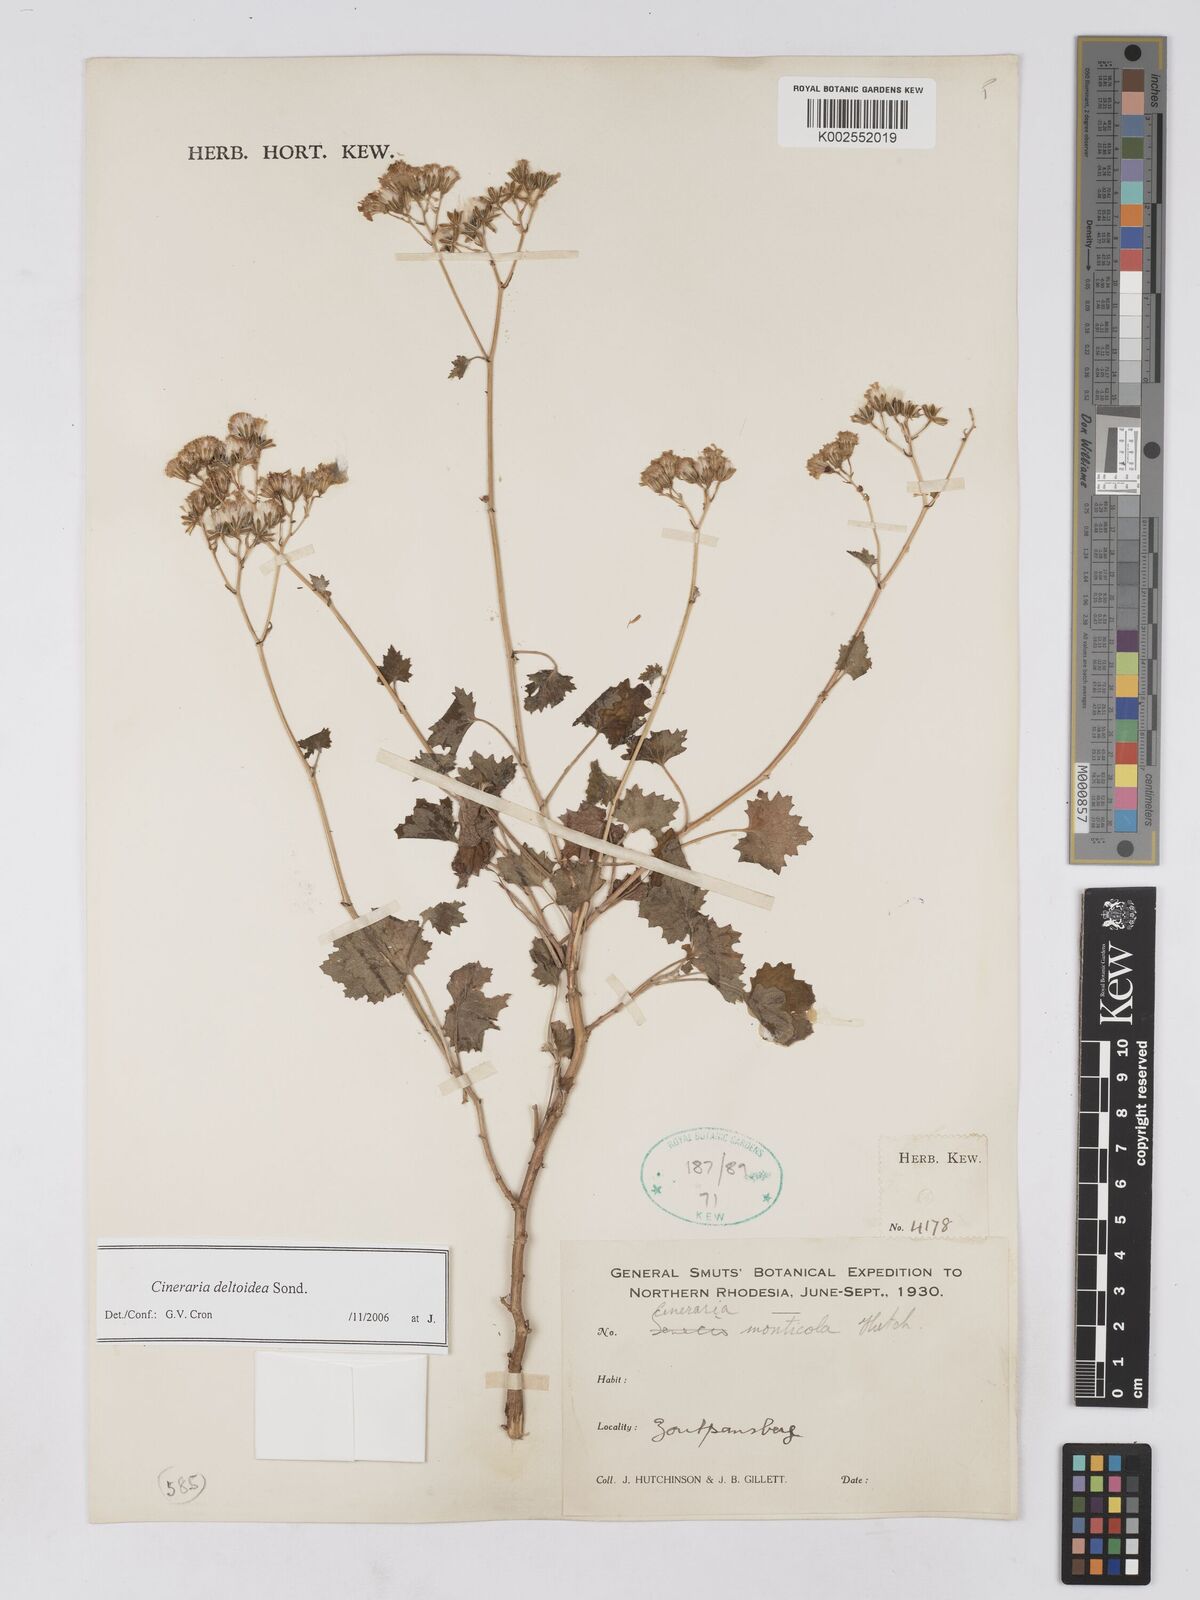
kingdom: Plantae
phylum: Tracheophyta
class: Magnoliopsida
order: Asterales
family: Asteraceae
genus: Cineraria
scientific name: Cineraria deltoidea
